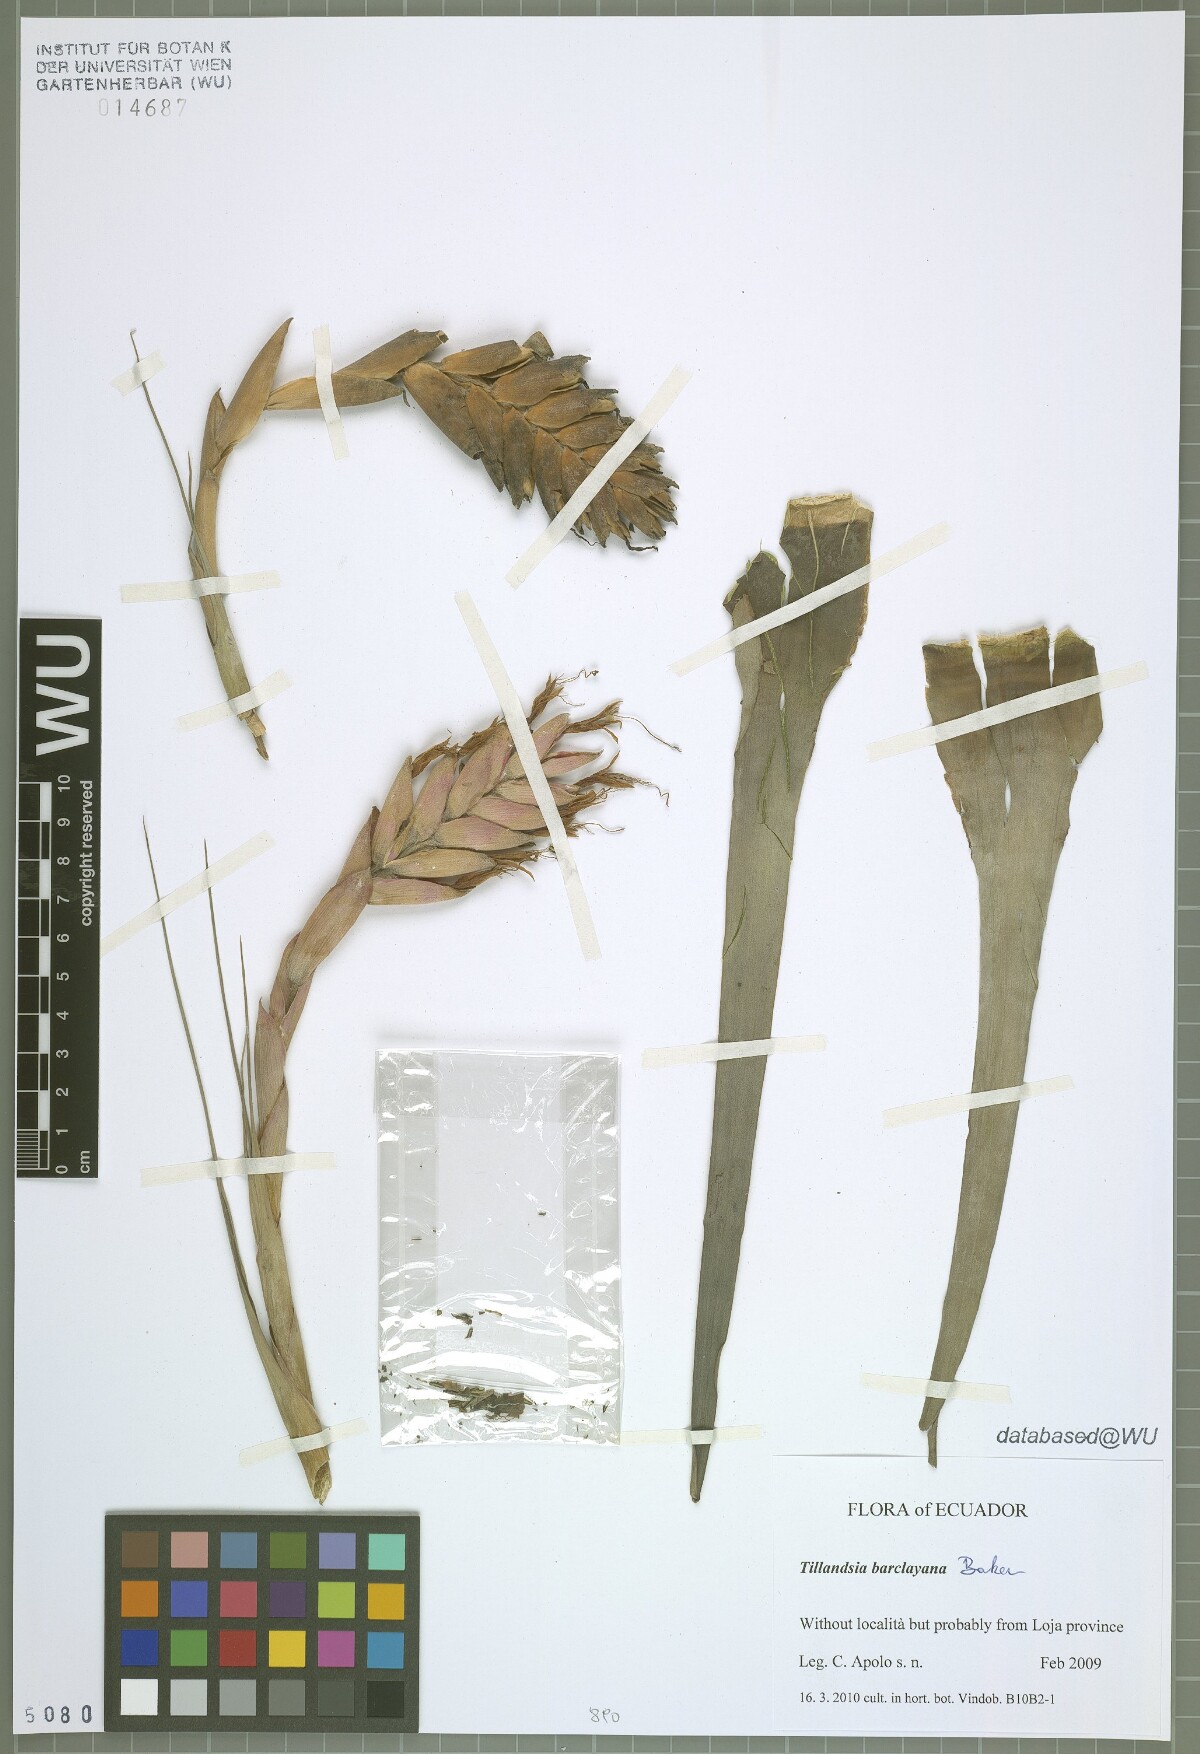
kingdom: Plantae
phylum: Tracheophyta
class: Liliopsida
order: Poales
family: Bromeliaceae
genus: Tillandsia
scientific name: Tillandsia barclayana
